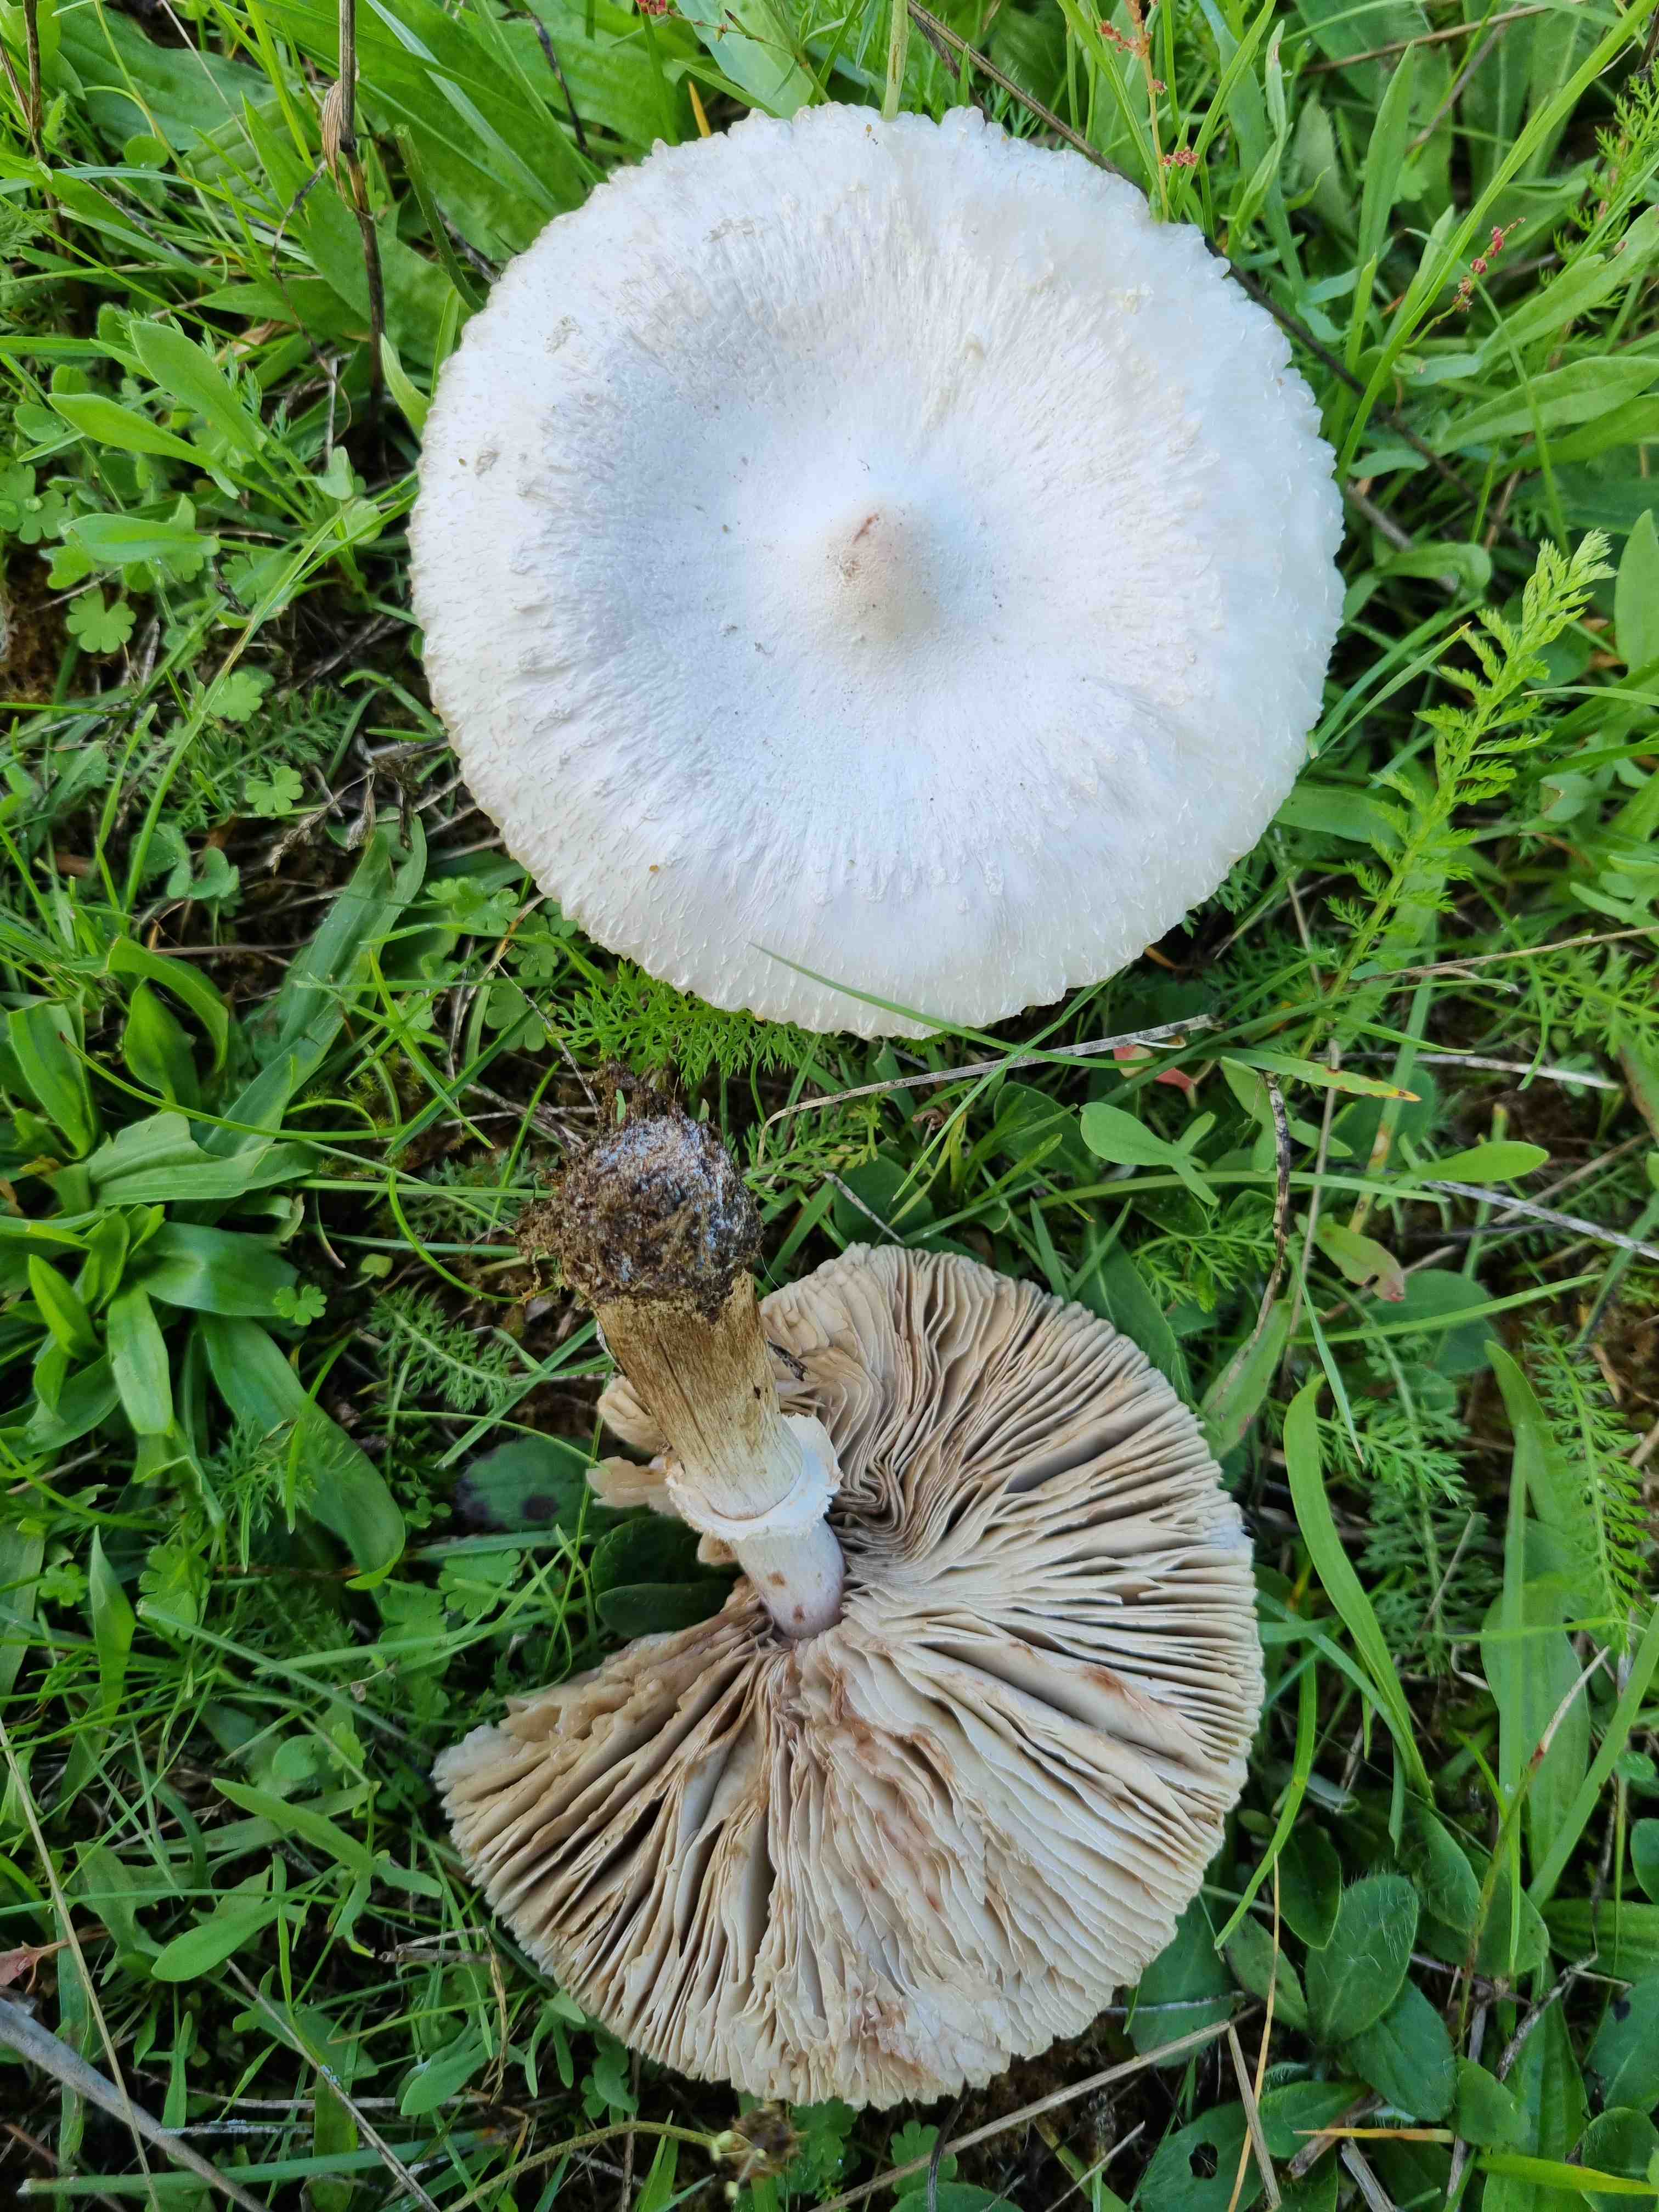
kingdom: Fungi
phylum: Basidiomycota
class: Agaricomycetes
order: Agaricales
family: Agaricaceae
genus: Macrolepiota
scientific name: Macrolepiota excoriata
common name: mark-kæmpeparasolhat
